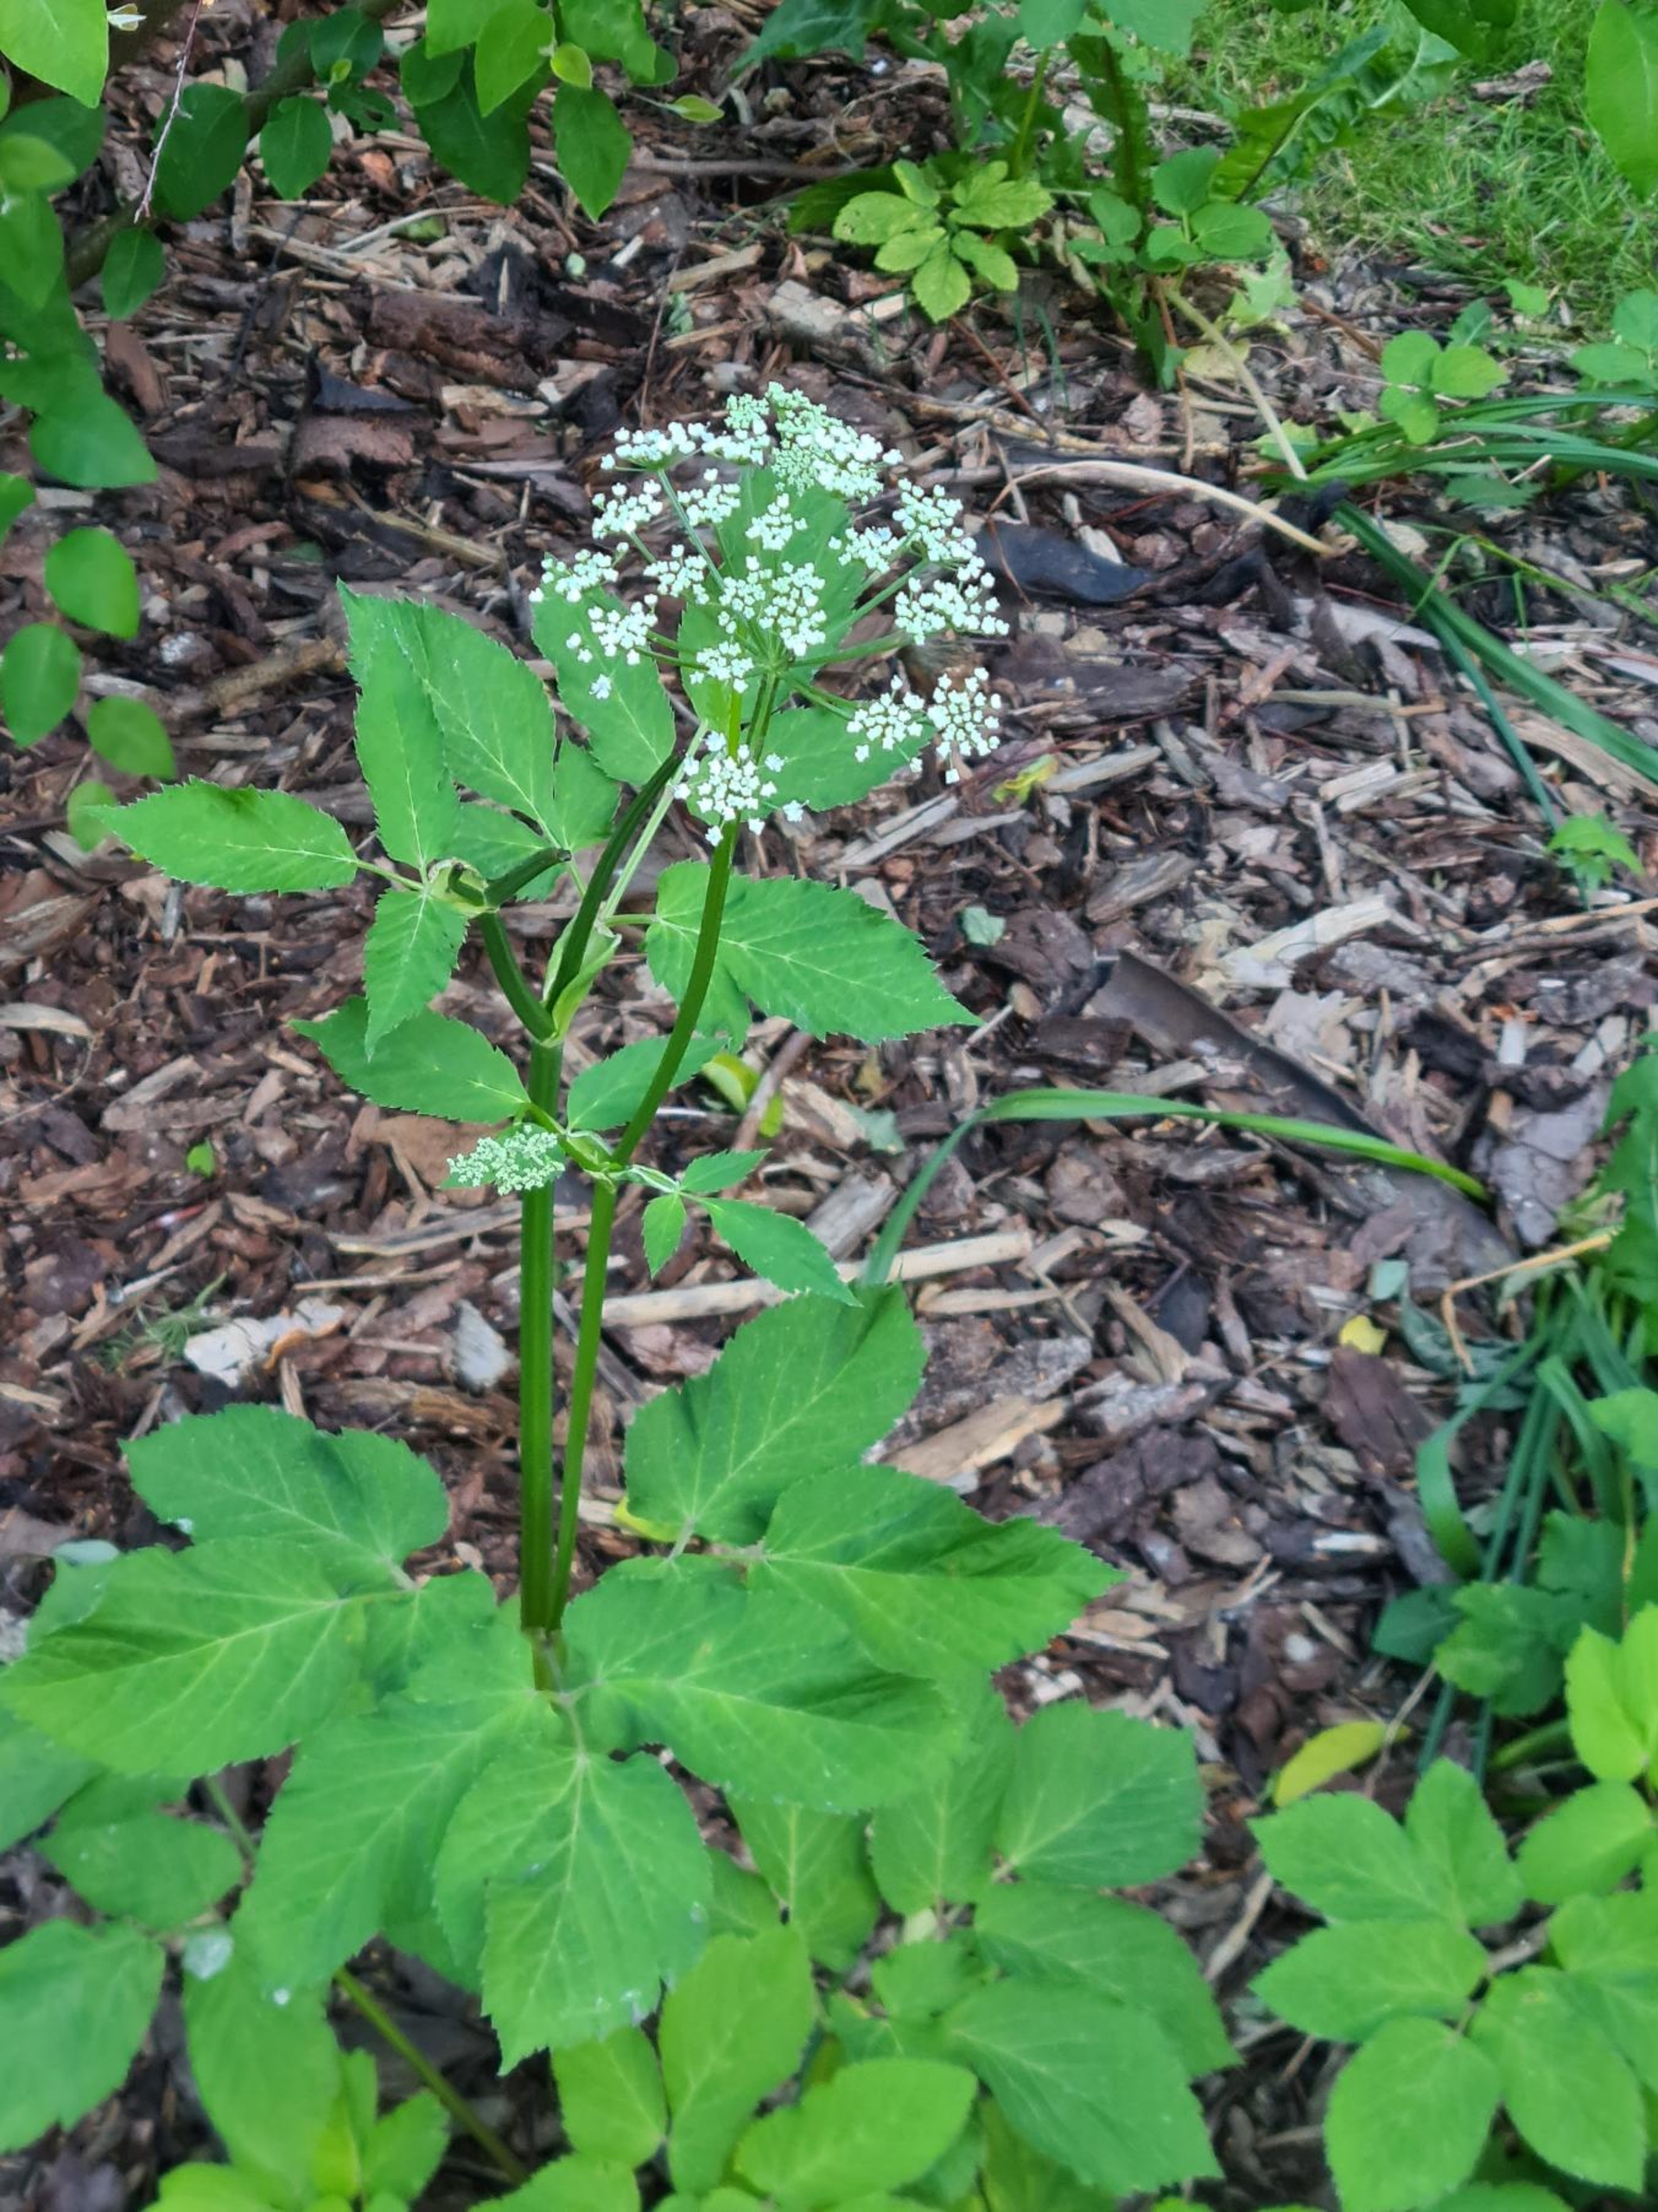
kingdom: Plantae
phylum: Tracheophyta
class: Magnoliopsida
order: Apiales
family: Apiaceae
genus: Aegopodium
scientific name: Aegopodium podagraria
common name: Skvalderkål
